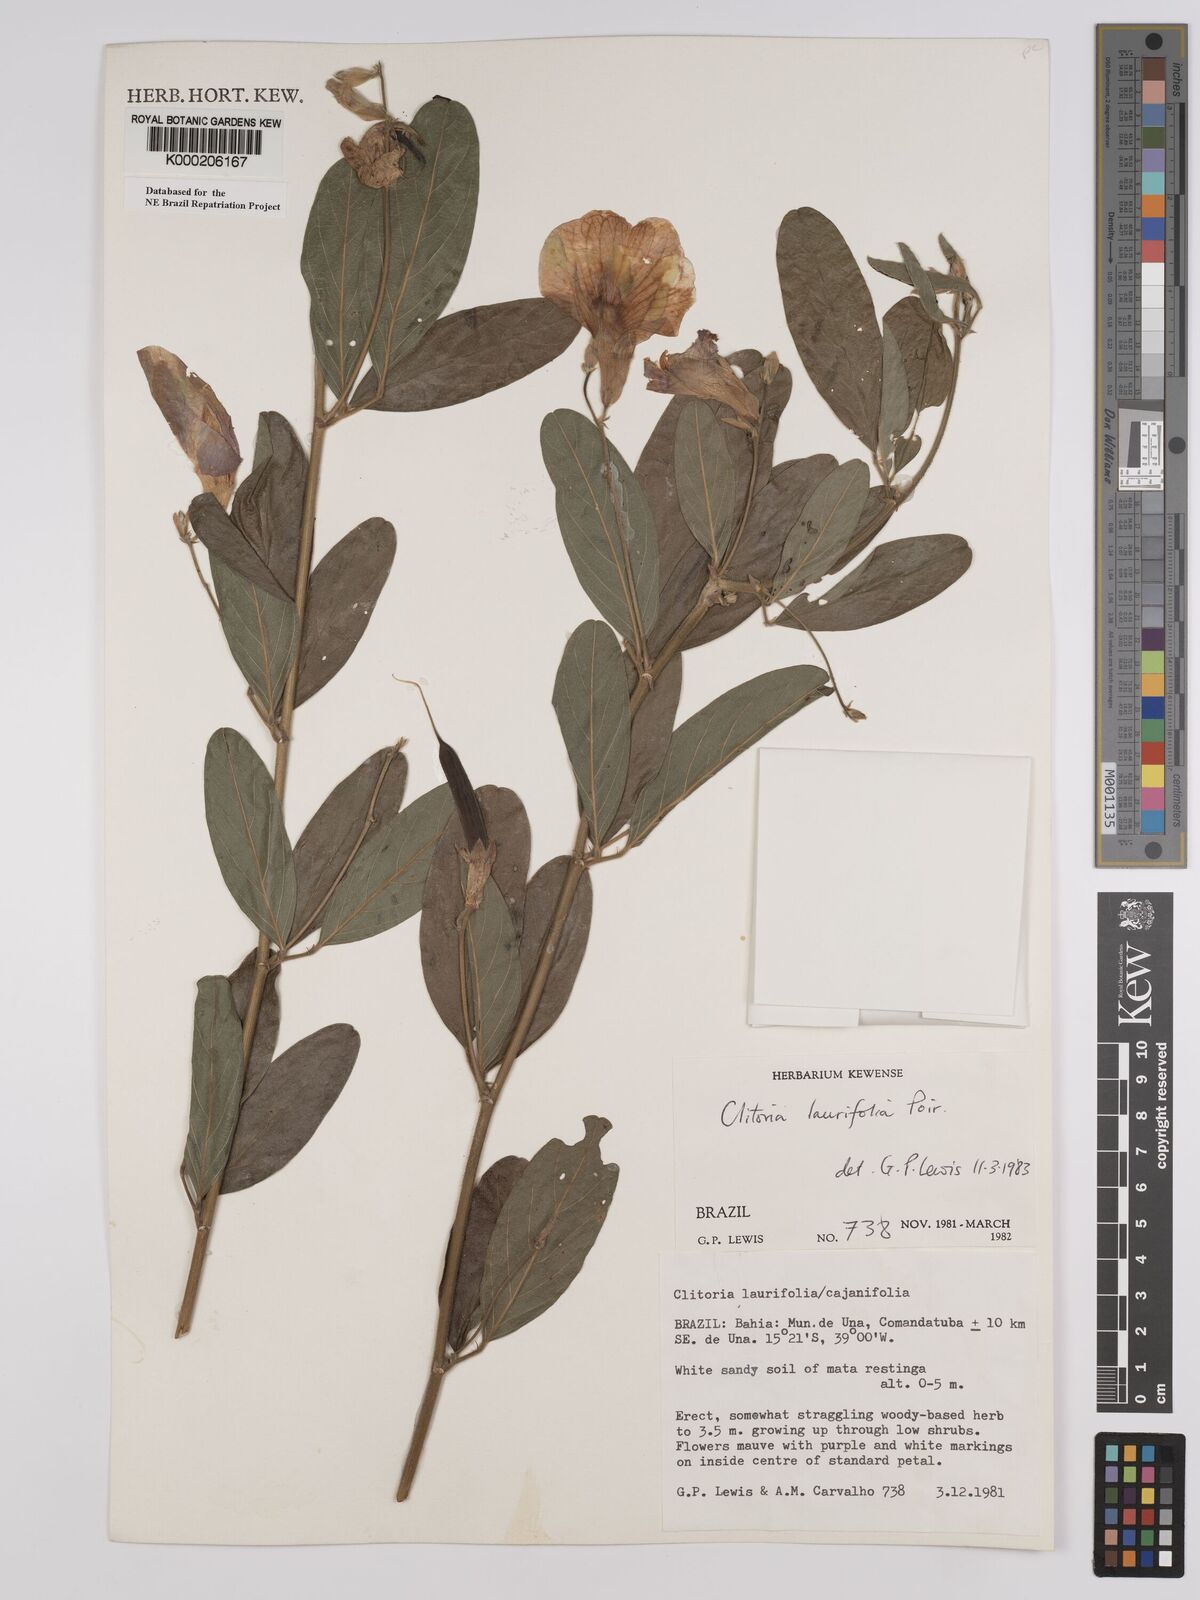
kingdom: Plantae
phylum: Tracheophyta
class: Magnoliopsida
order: Fabales
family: Fabaceae
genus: Clitoria
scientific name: Clitoria laurifolia
